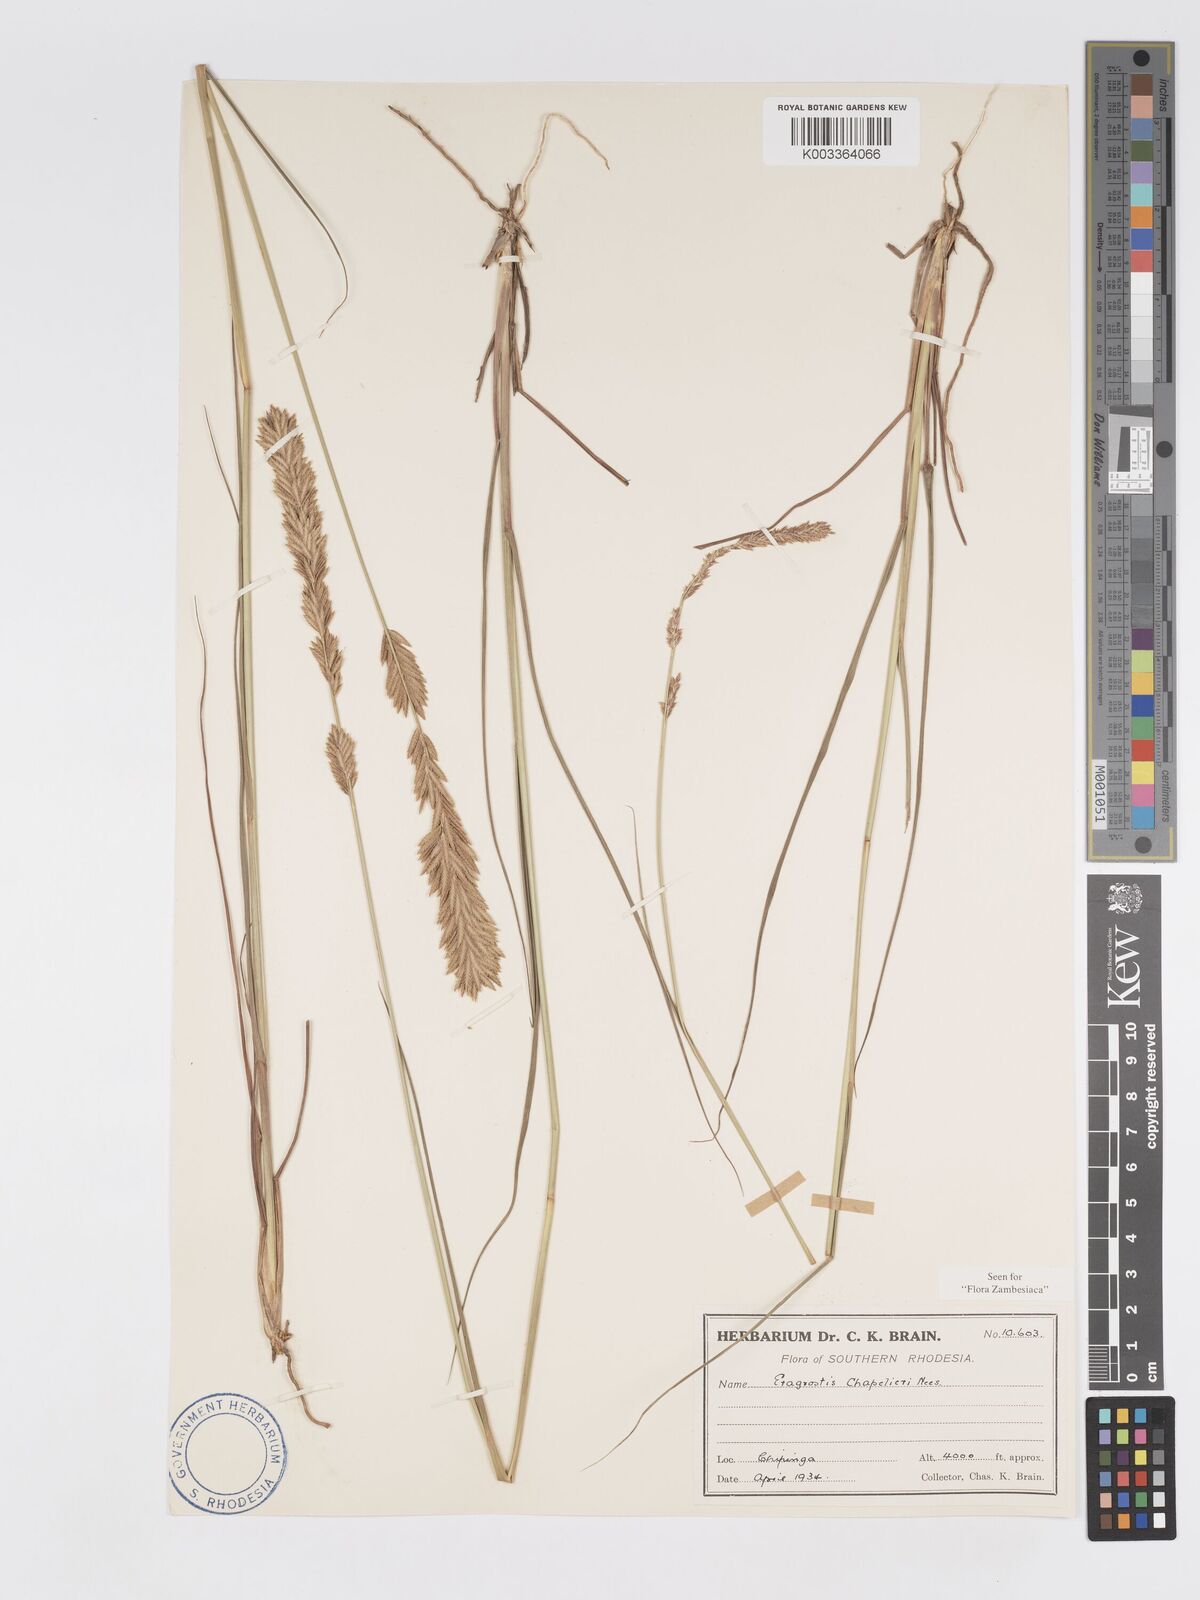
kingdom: Plantae
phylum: Tracheophyta
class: Liliopsida
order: Poales
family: Poaceae
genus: Eragrostis
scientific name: Eragrostis chapelieri
